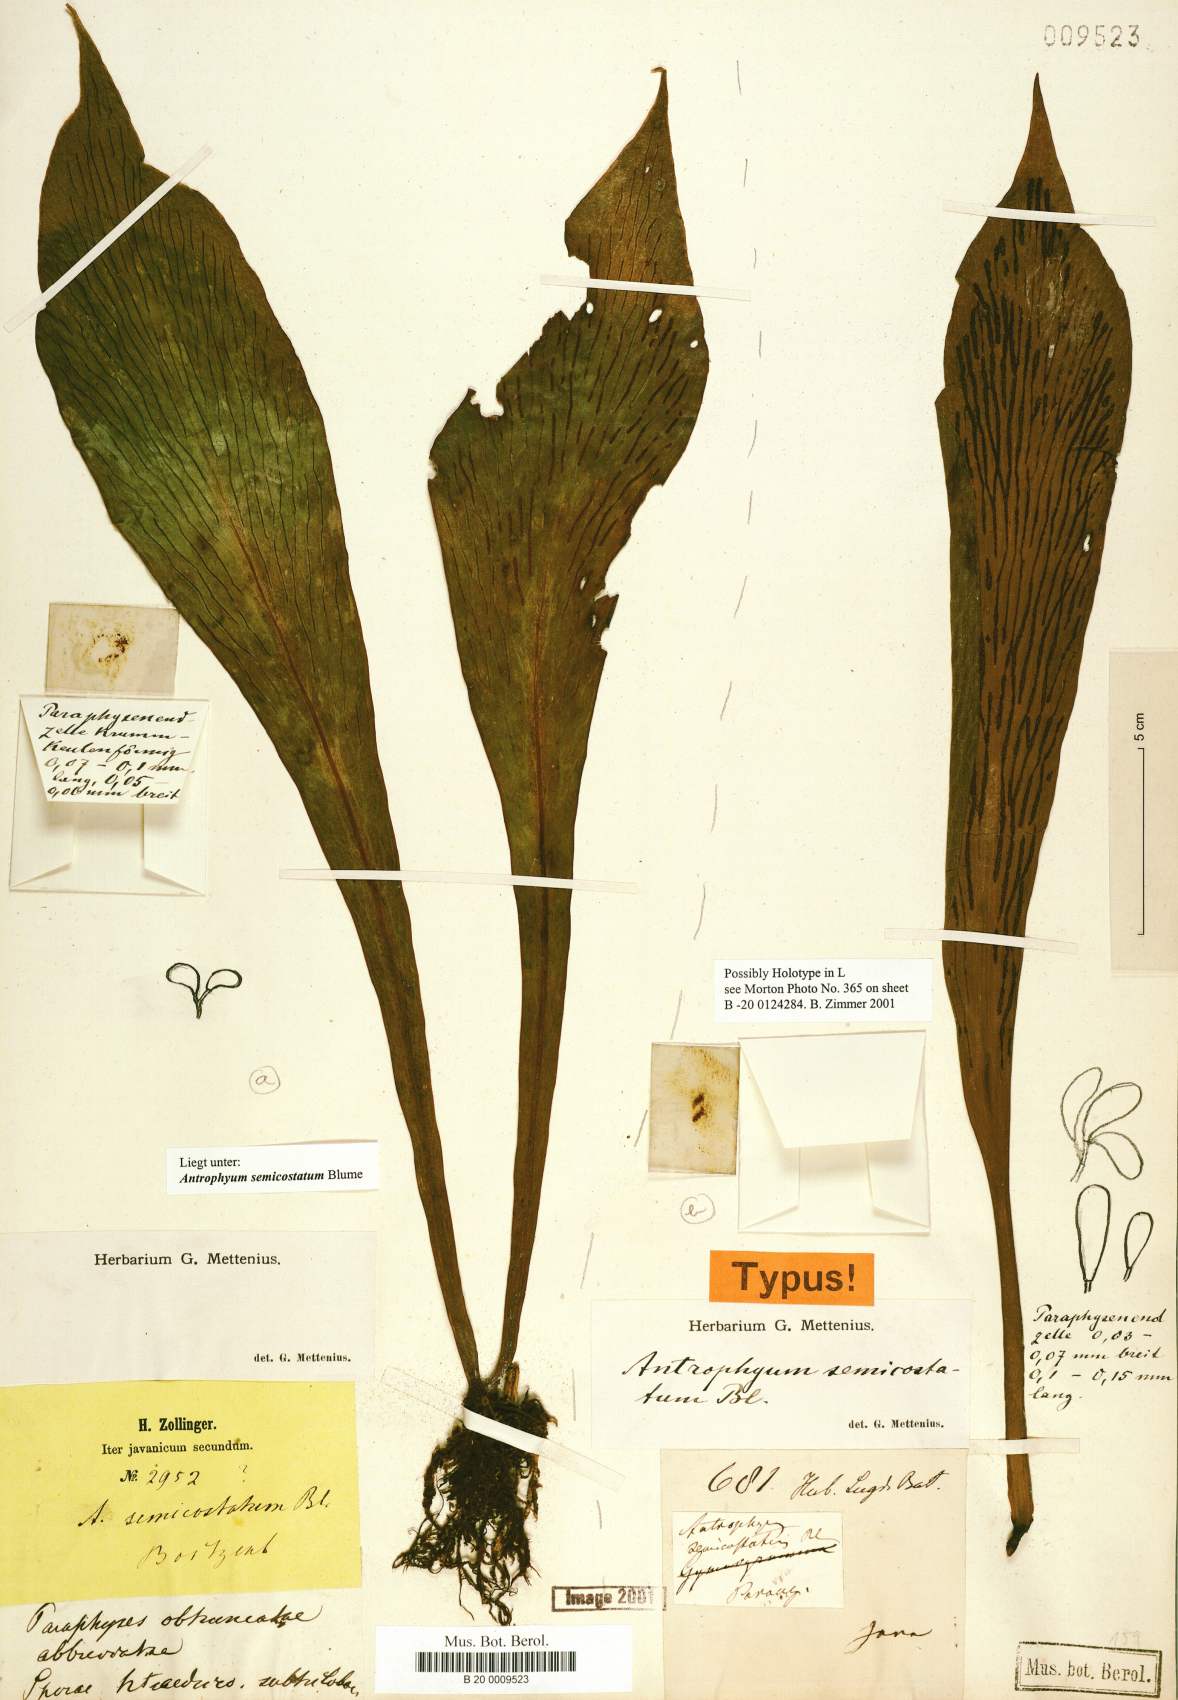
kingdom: Plantae
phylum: Tracheophyta
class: Polypodiopsida
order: Polypodiales
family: Pteridaceae
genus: Antrophyum
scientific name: Antrophyum semicostatum
